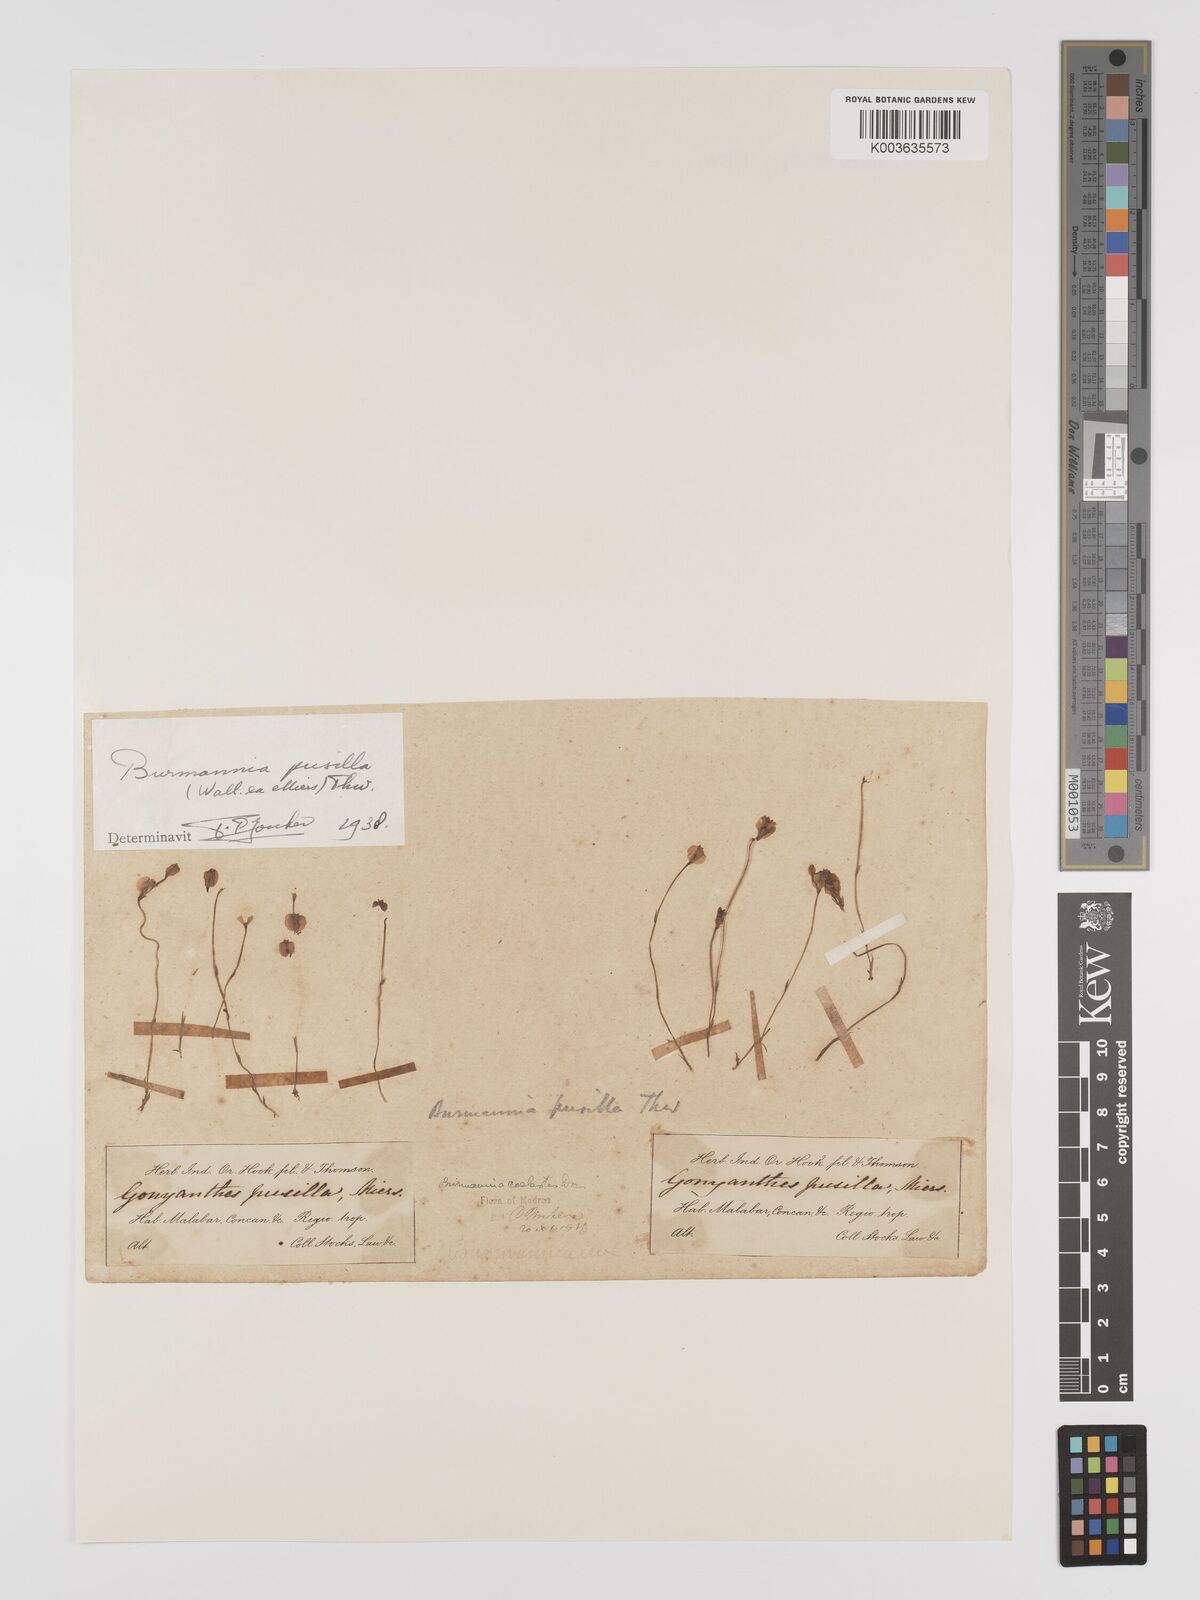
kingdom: Plantae
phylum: Tracheophyta
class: Liliopsida
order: Dioscoreales
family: Burmanniaceae
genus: Burmannia
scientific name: Burmannia pusilla
